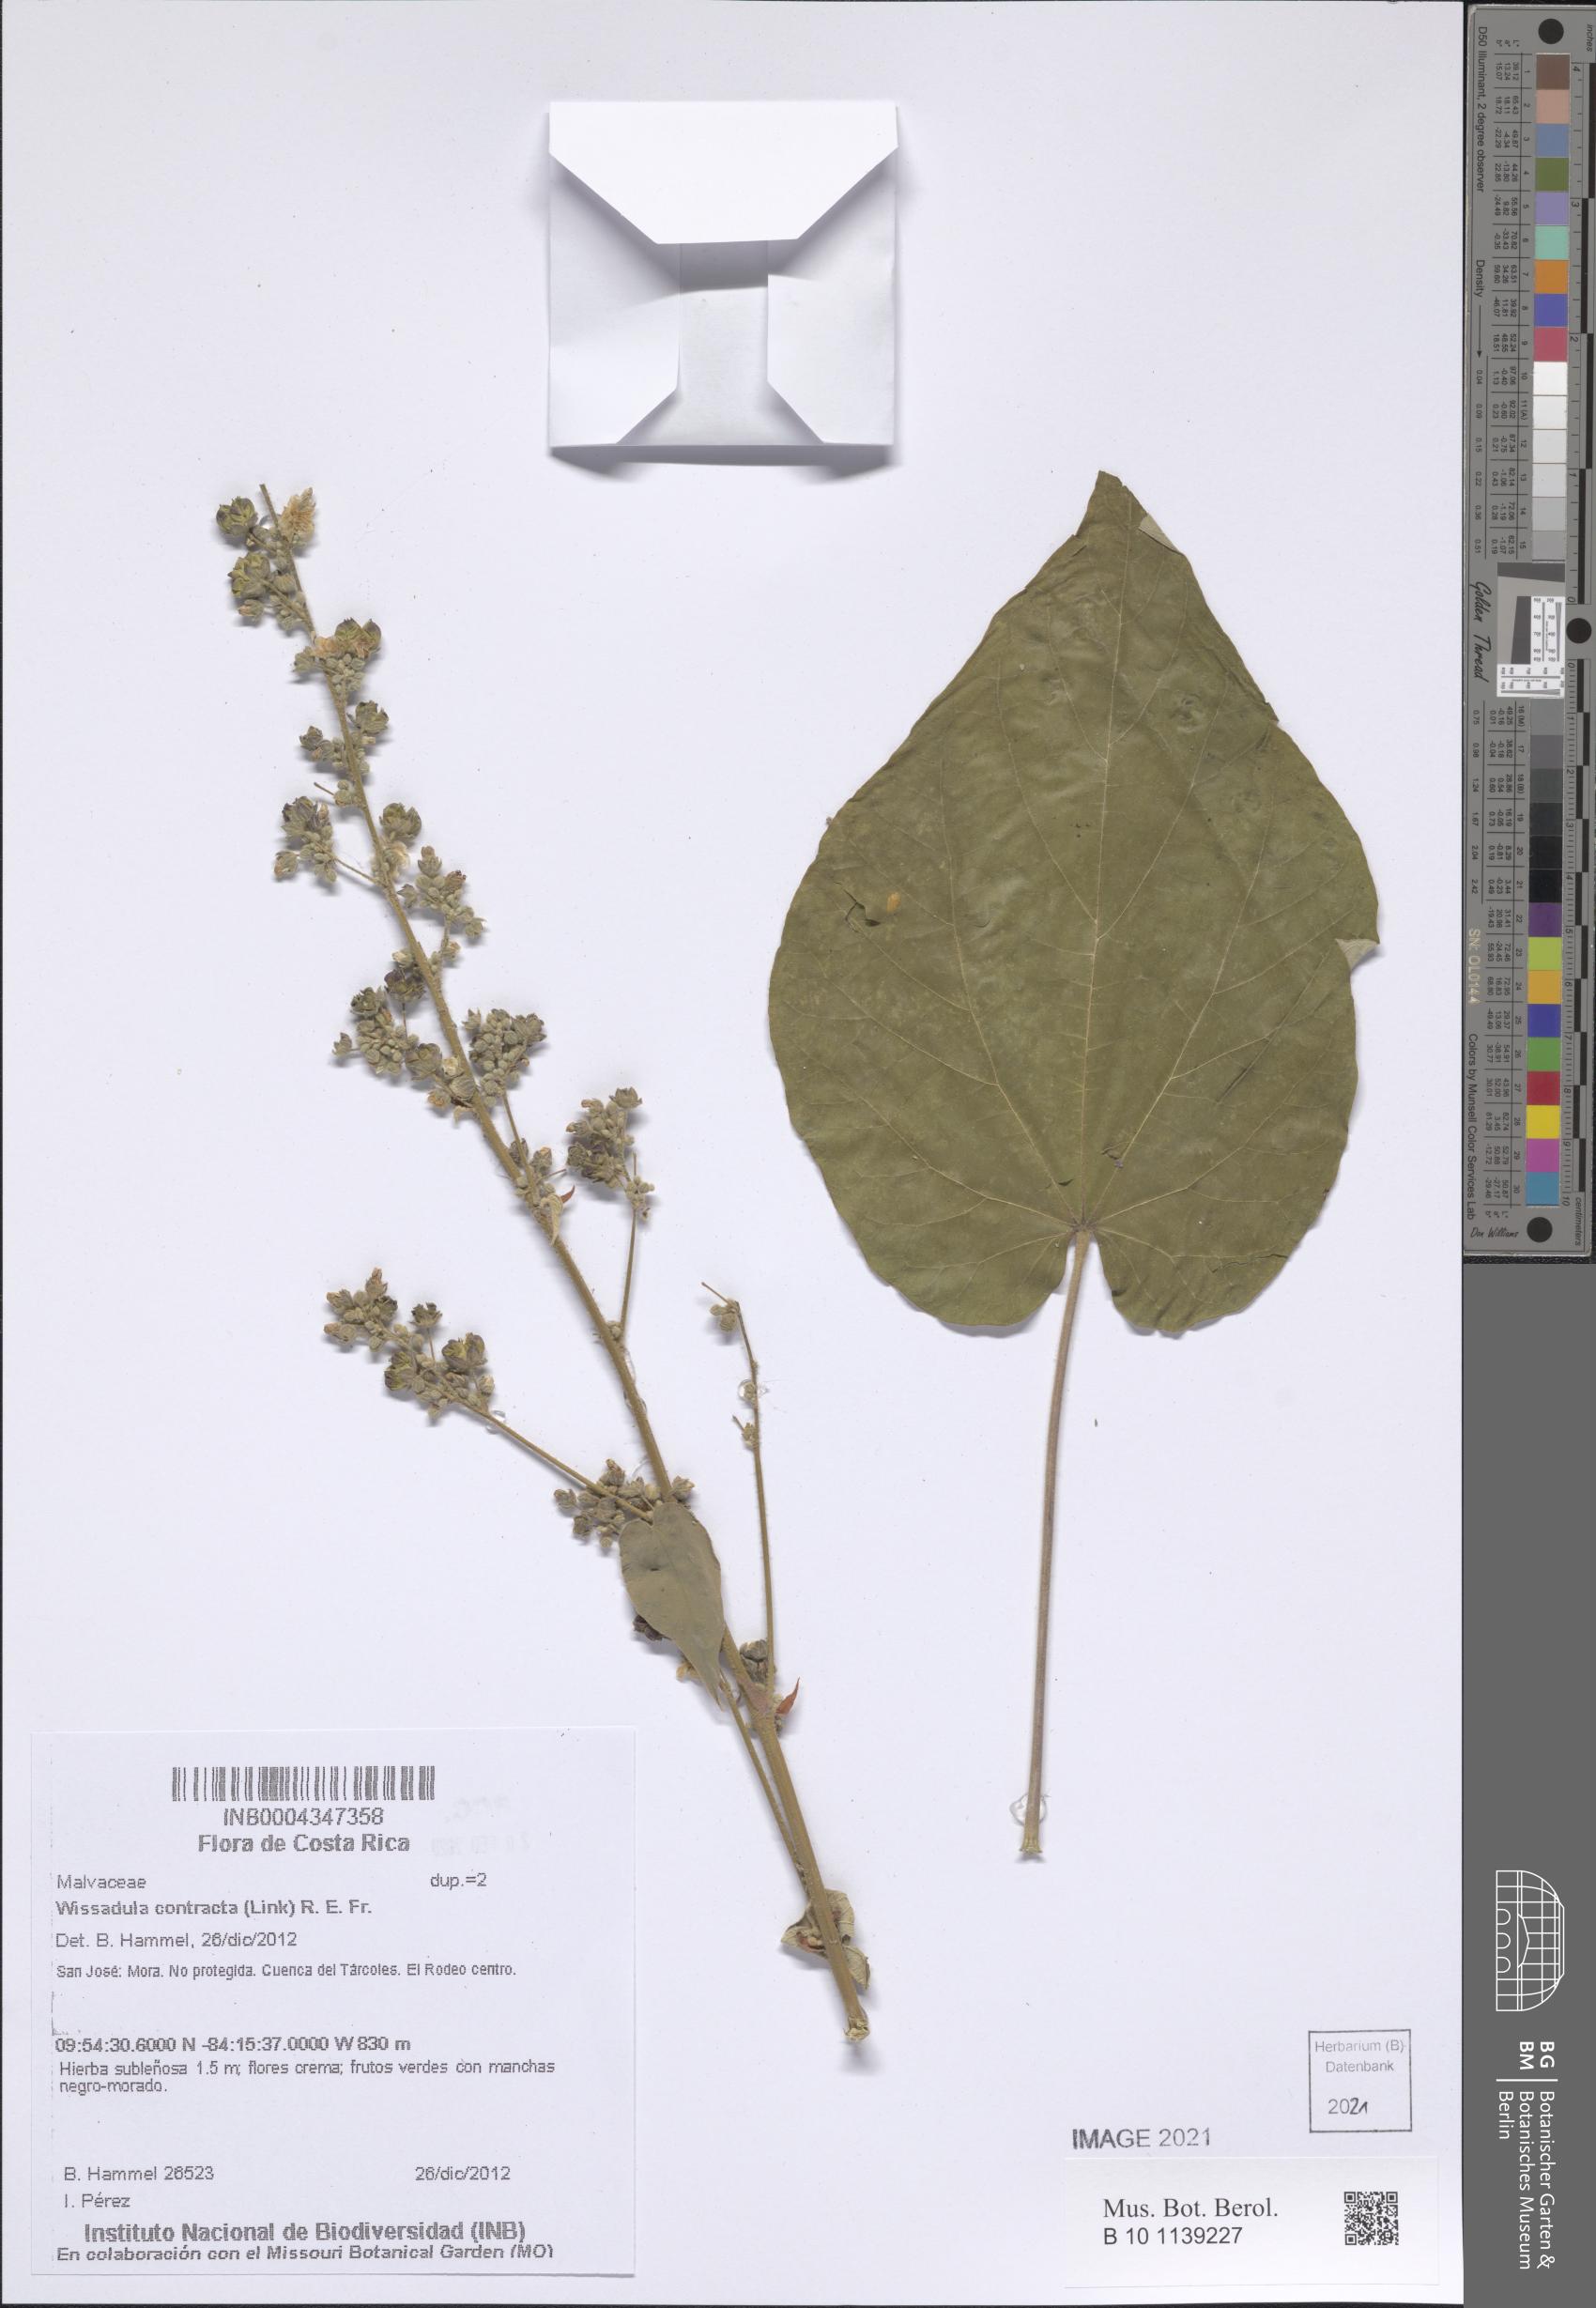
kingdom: Plantae
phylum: Tracheophyta
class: Magnoliopsida
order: Malvales
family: Malvaceae
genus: Wissadula
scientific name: Wissadula contracta
